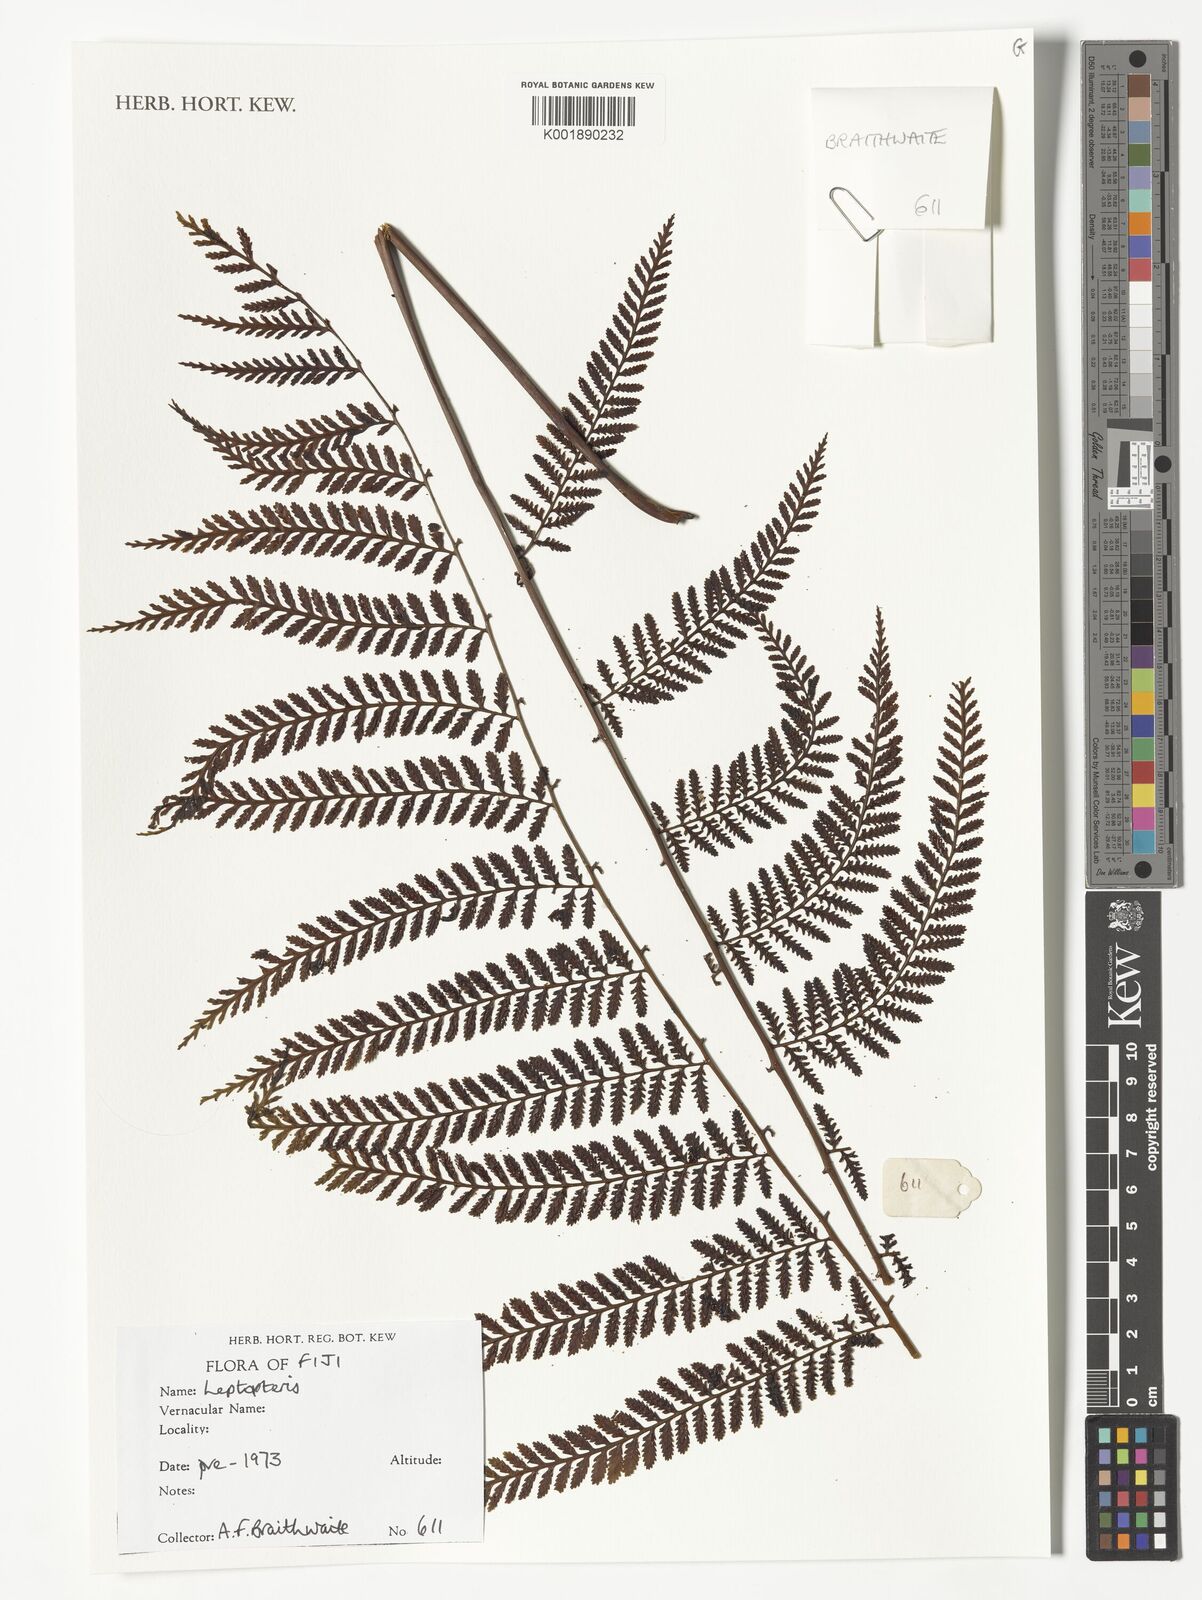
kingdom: Plantae
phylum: Tracheophyta
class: Polypodiopsida
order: Osmundales
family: Osmundaceae
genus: Leptopteris
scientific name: Leptopteris
